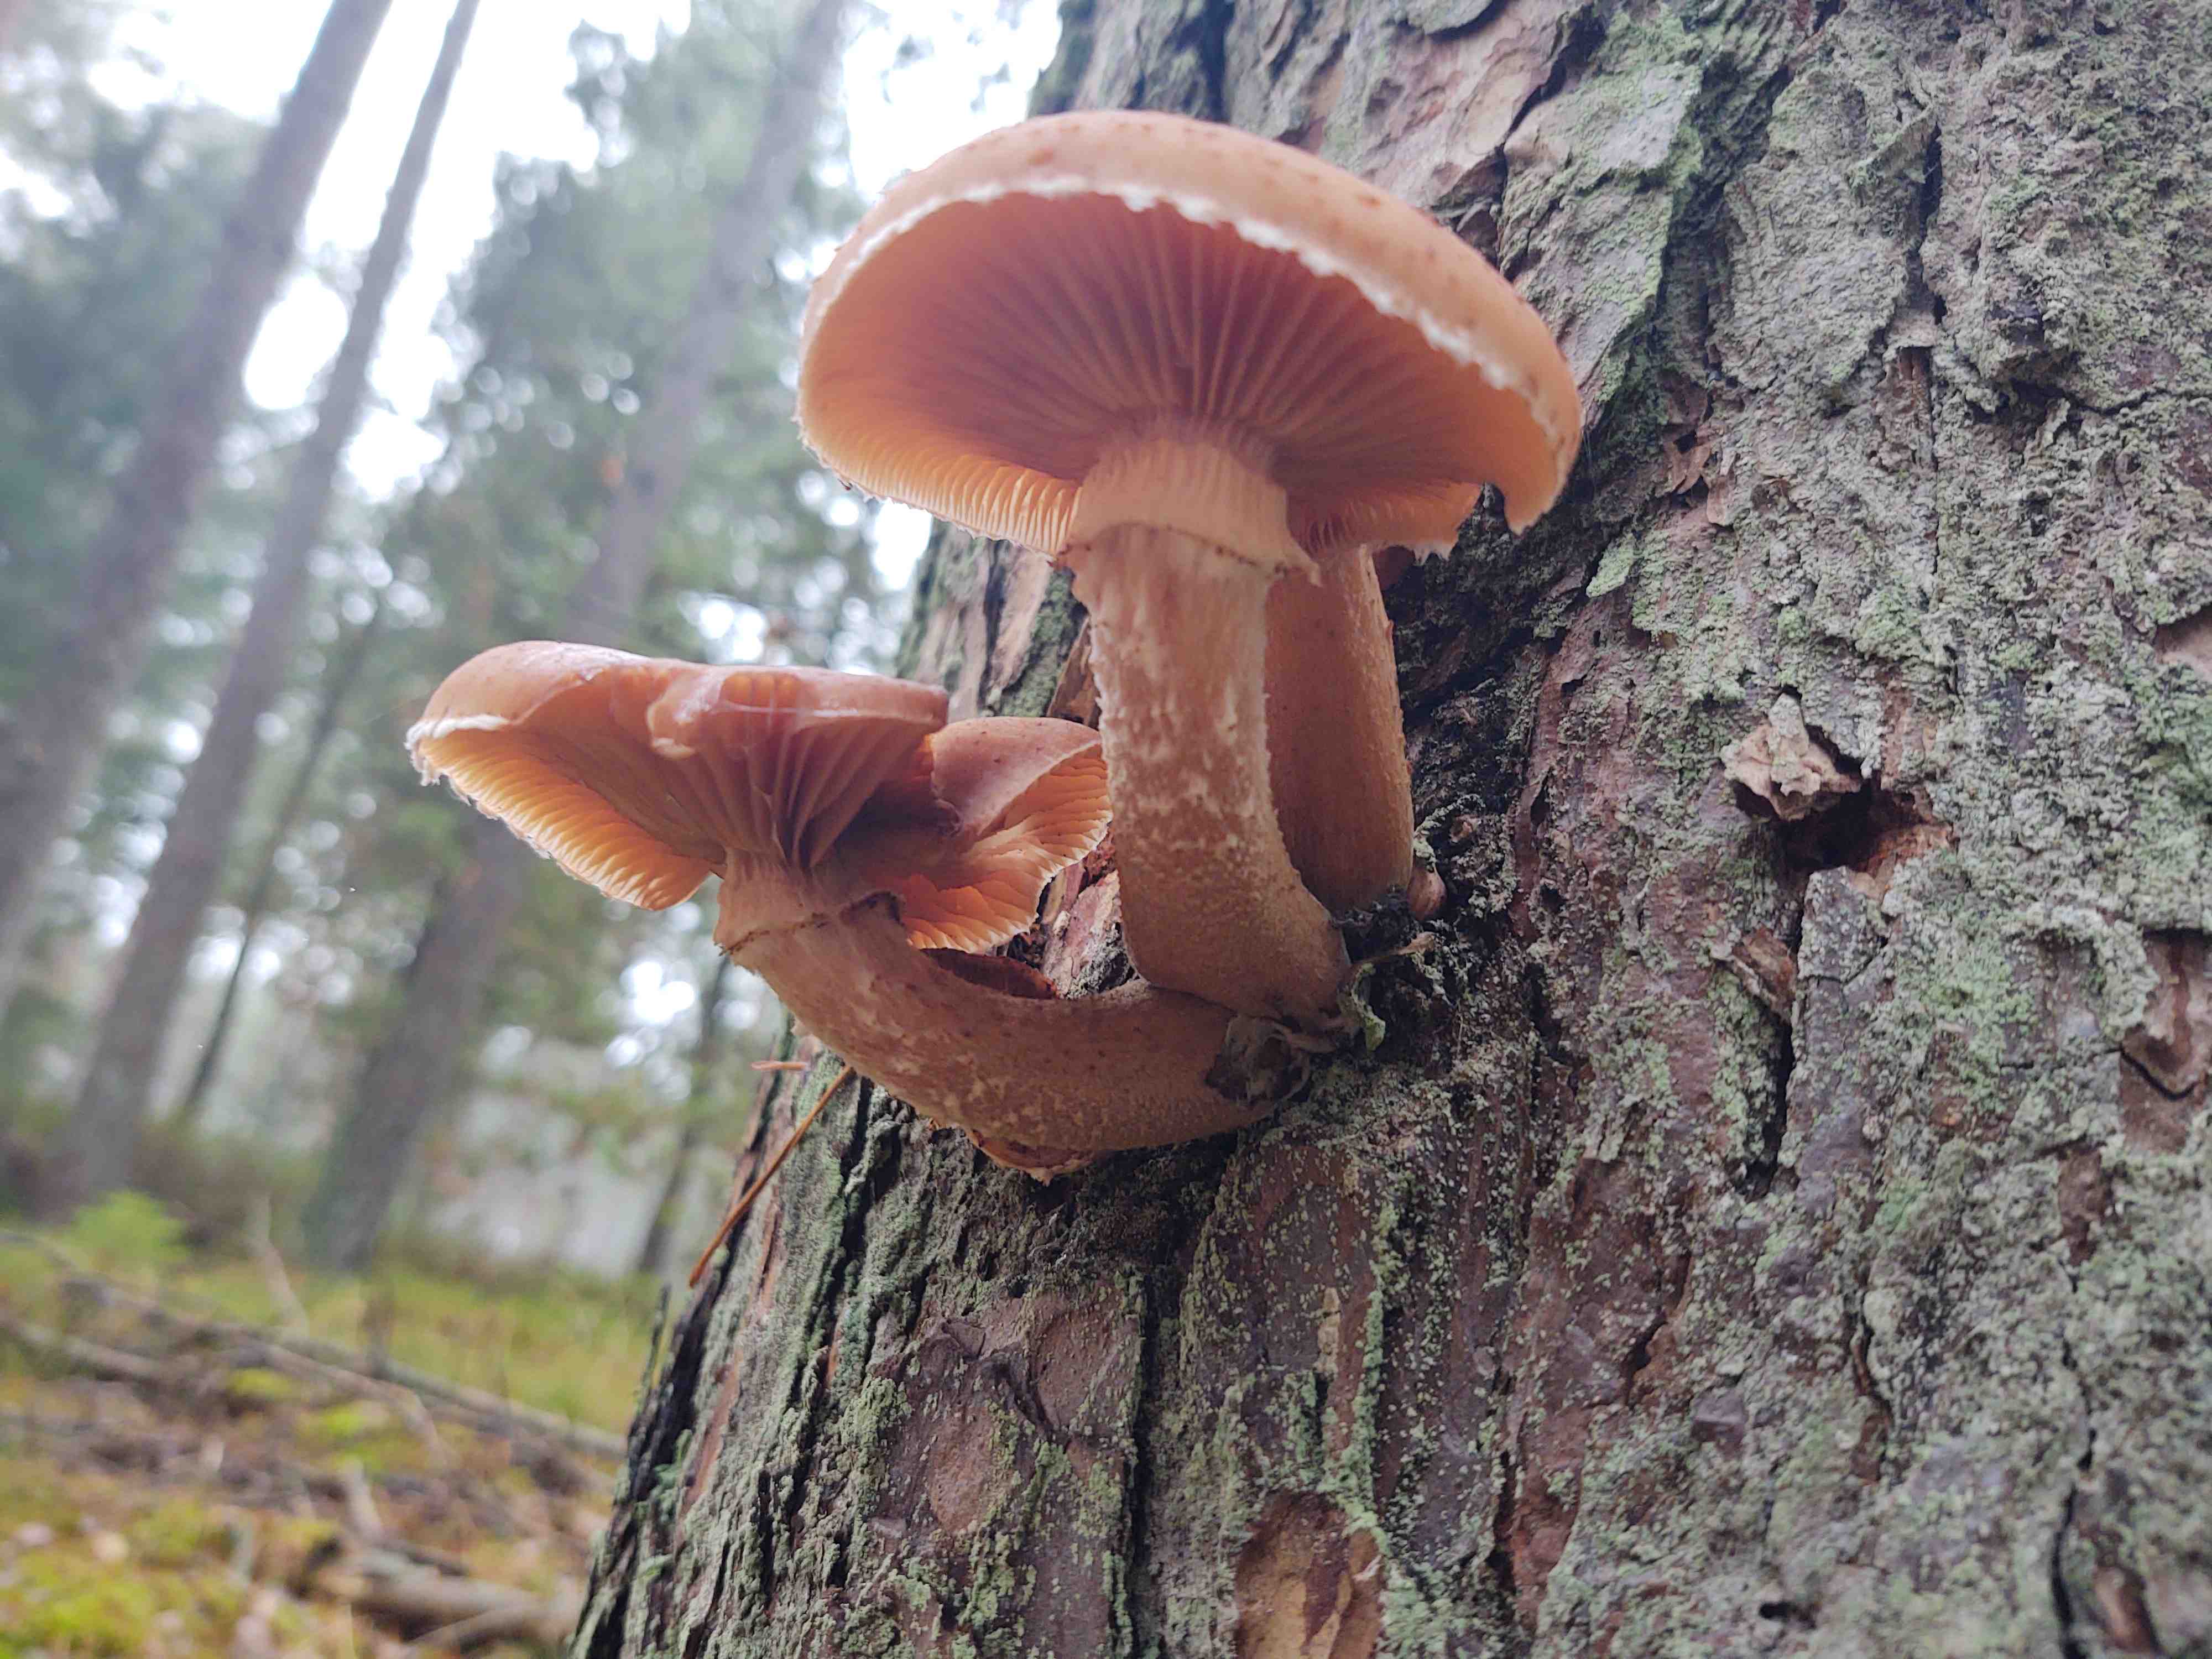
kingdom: Fungi
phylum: Basidiomycota
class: Agaricomycetes
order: Agaricales
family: Physalacriaceae
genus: Armillaria
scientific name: Armillaria ostoyae
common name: mørk honningsvamp
